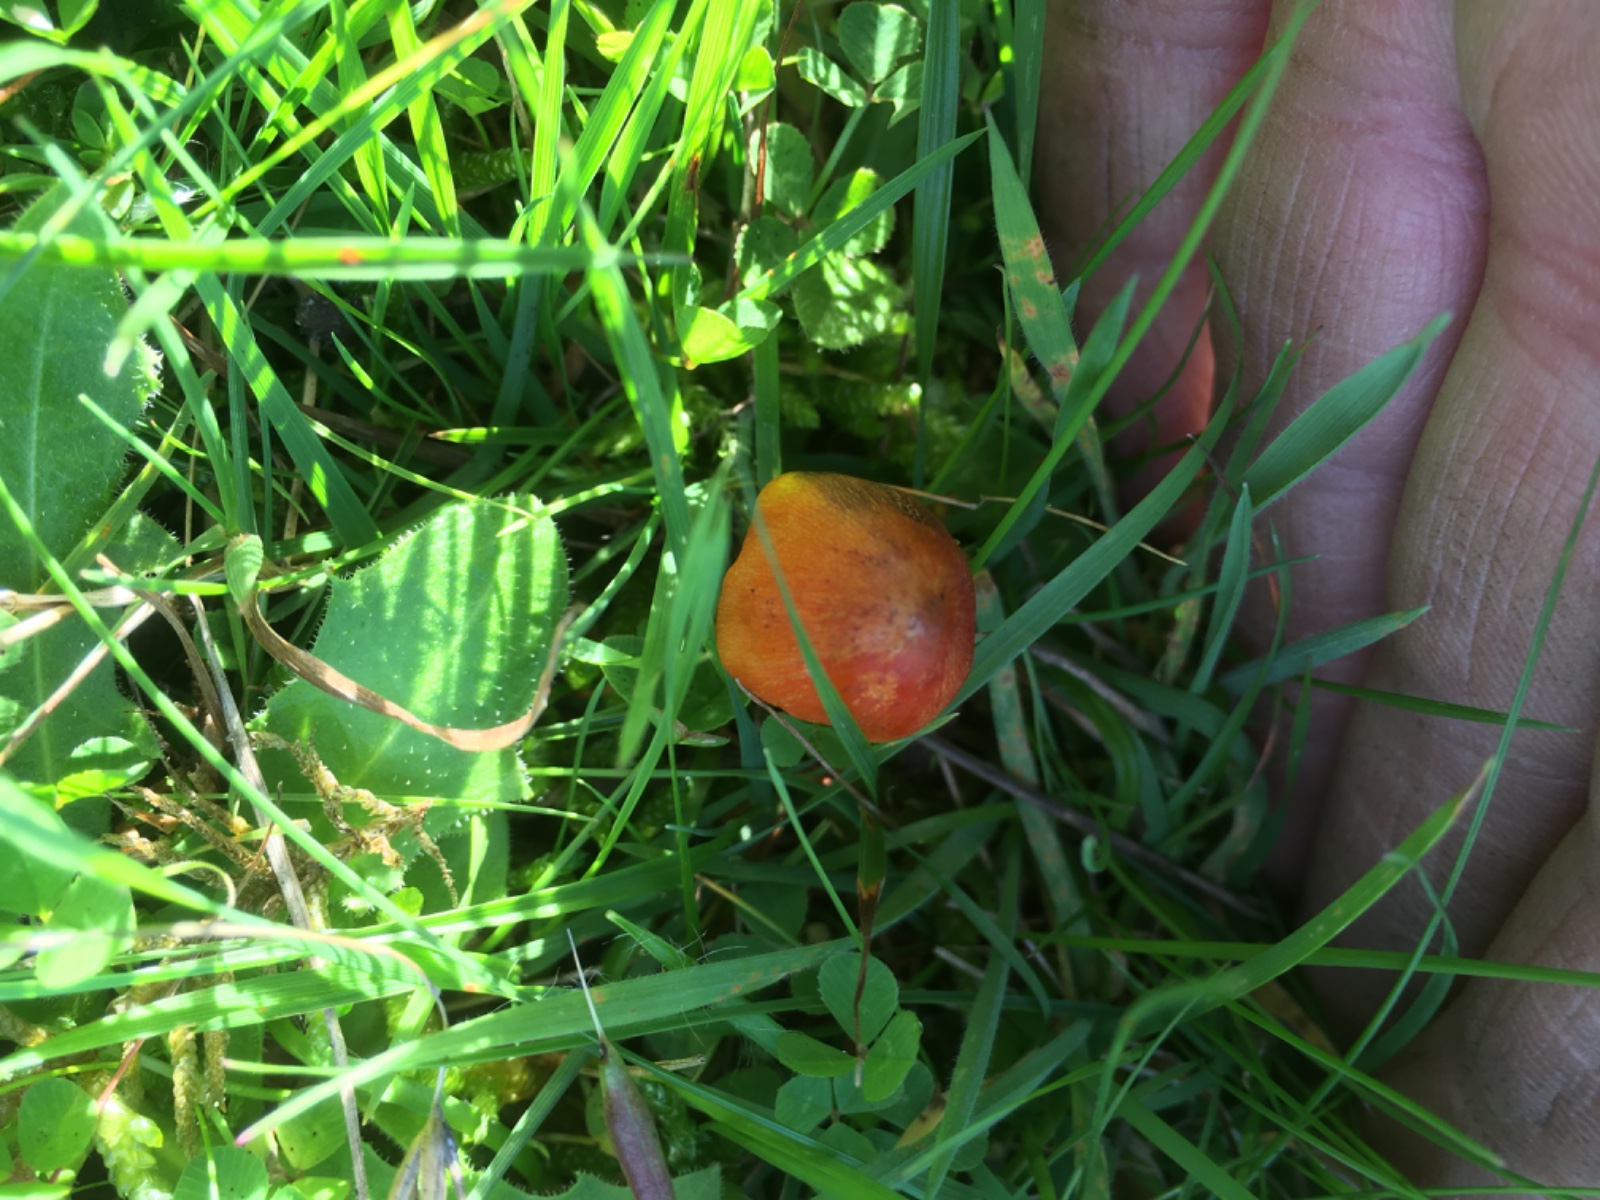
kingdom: Fungi
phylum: Basidiomycota
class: Agaricomycetes
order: Agaricales
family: Hygrophoraceae
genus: Hygrocybe
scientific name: Hygrocybe conica
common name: kegle-vokshat
